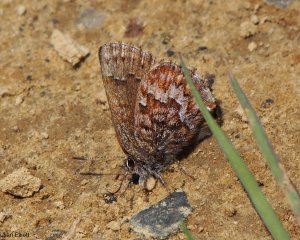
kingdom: Animalia
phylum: Arthropoda
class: Insecta
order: Lepidoptera
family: Lycaenidae
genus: Incisalia
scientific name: Incisalia niphon
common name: Eastern Pine Elfin
